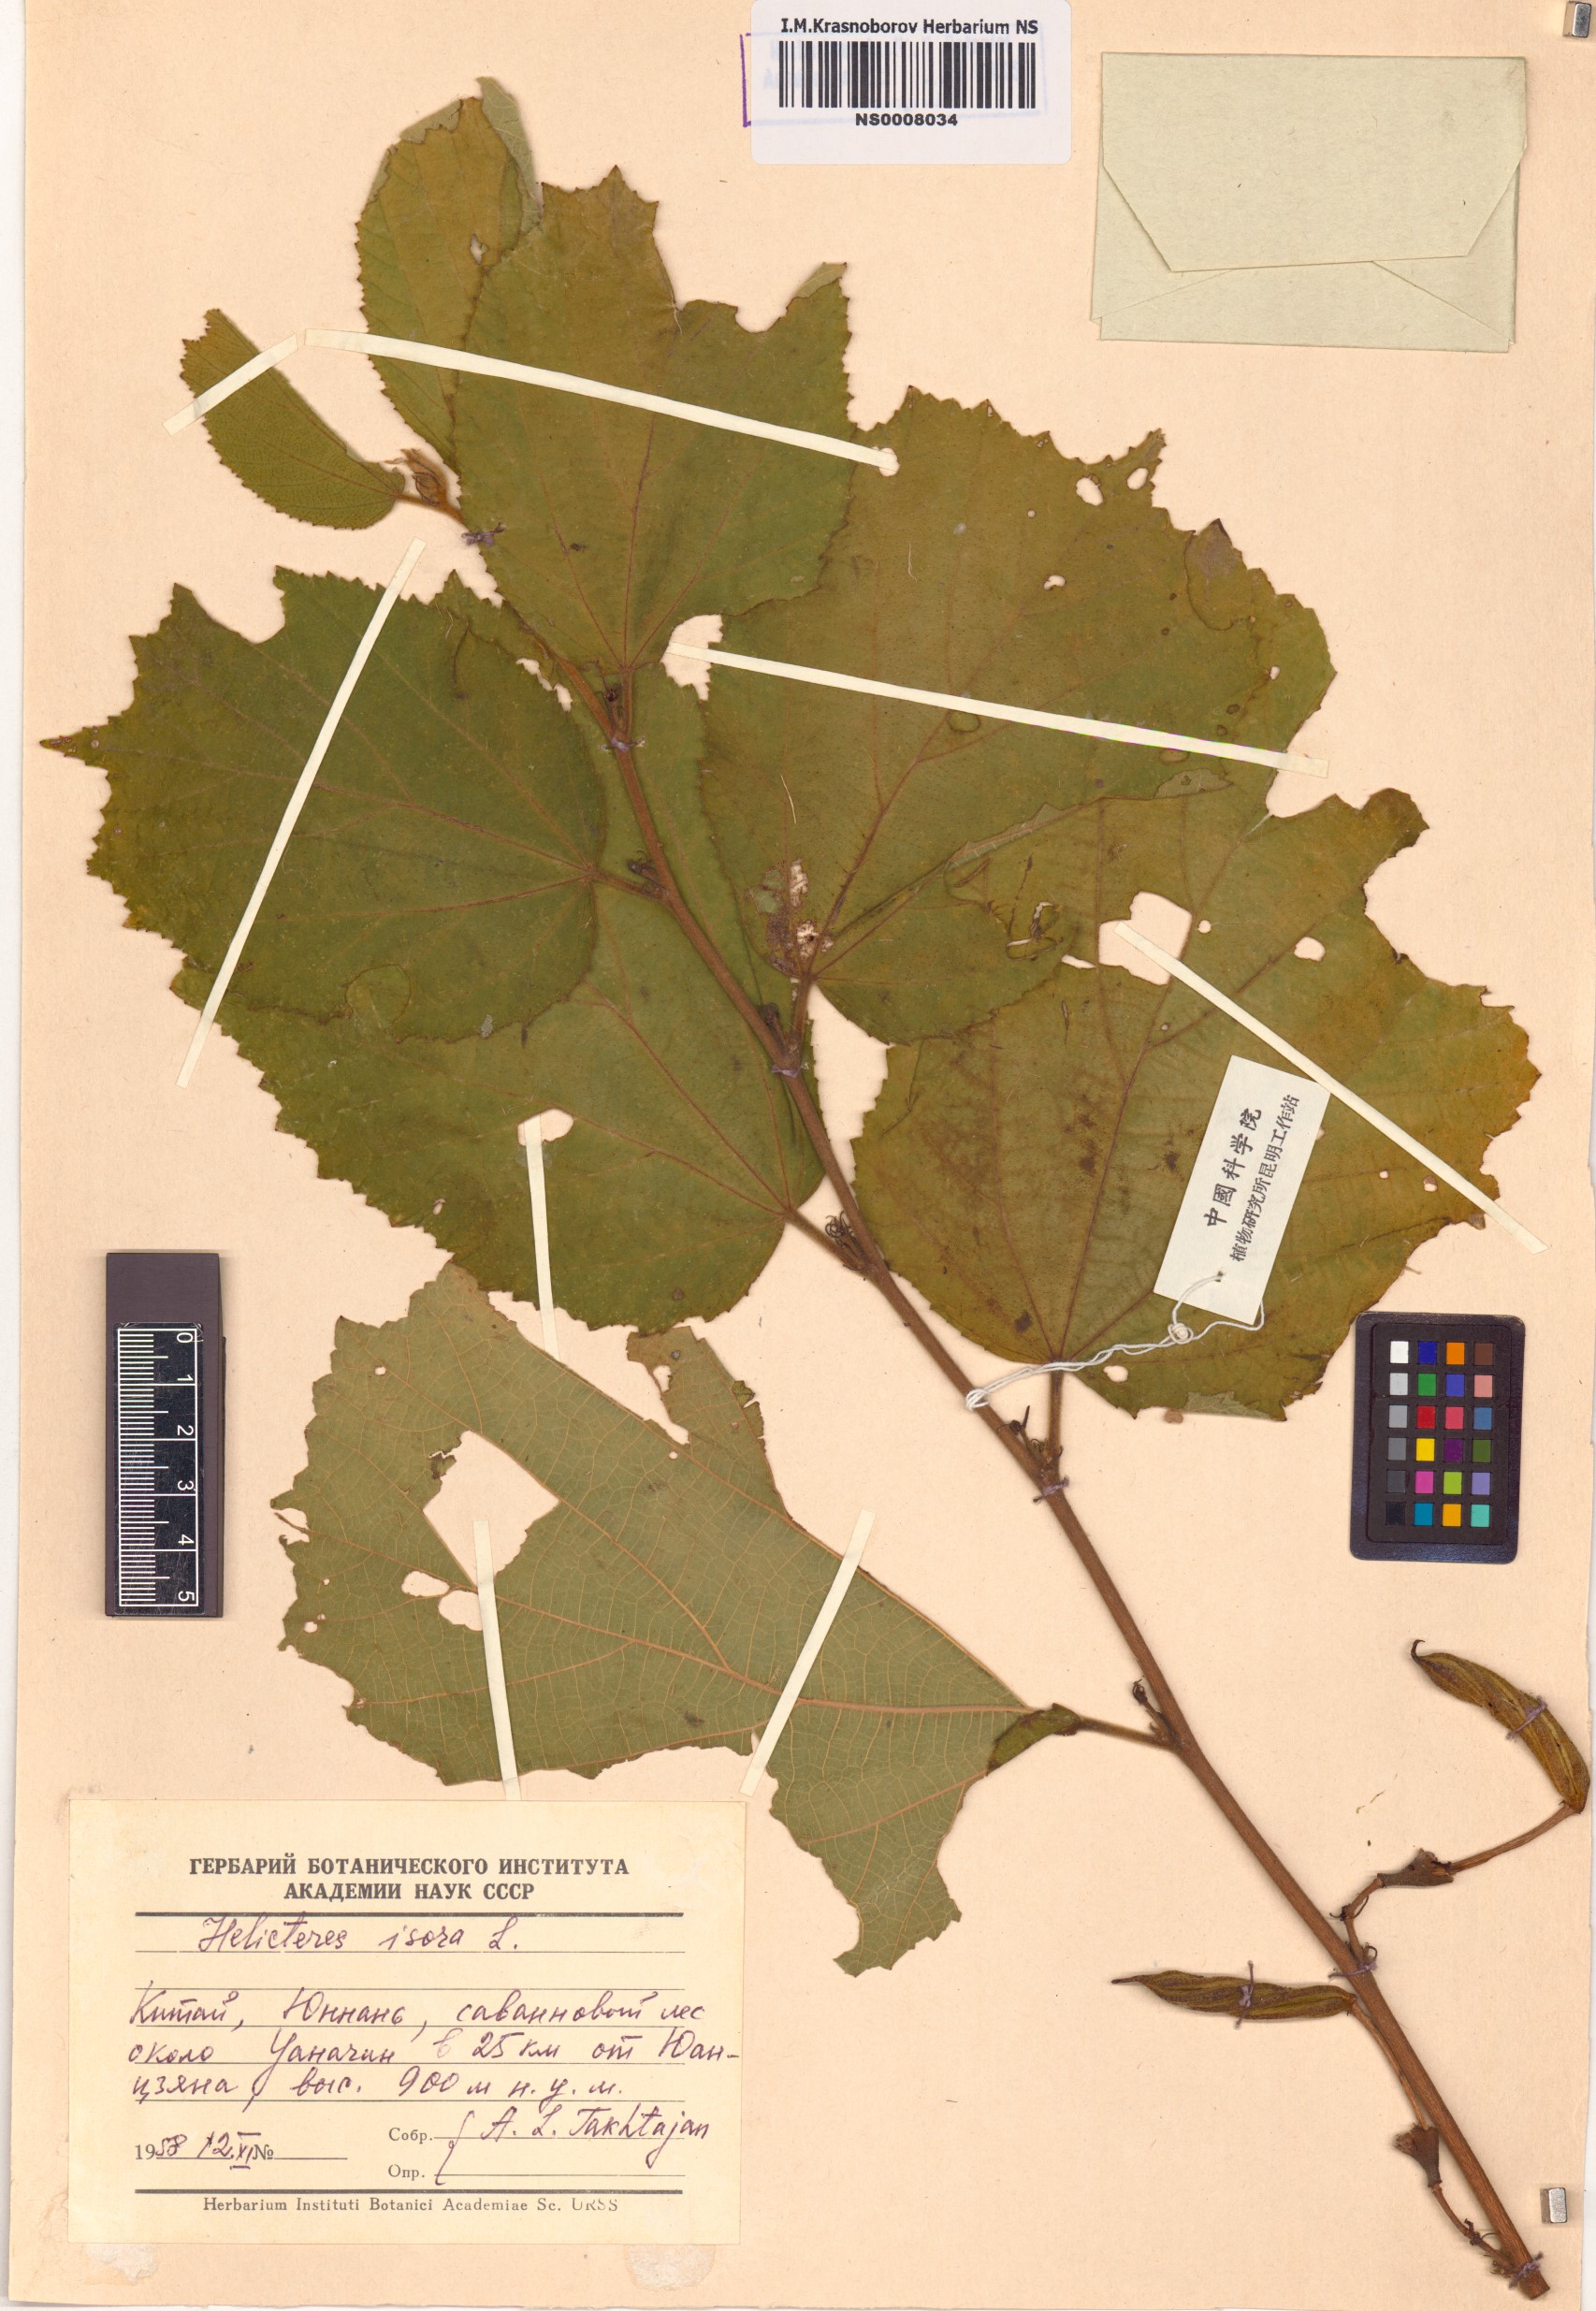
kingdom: Plantae
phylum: Tracheophyta
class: Magnoliopsida
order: Malvales
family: Malvaceae
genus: Helicteres
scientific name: Helicteres isora
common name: East indian screwtree
